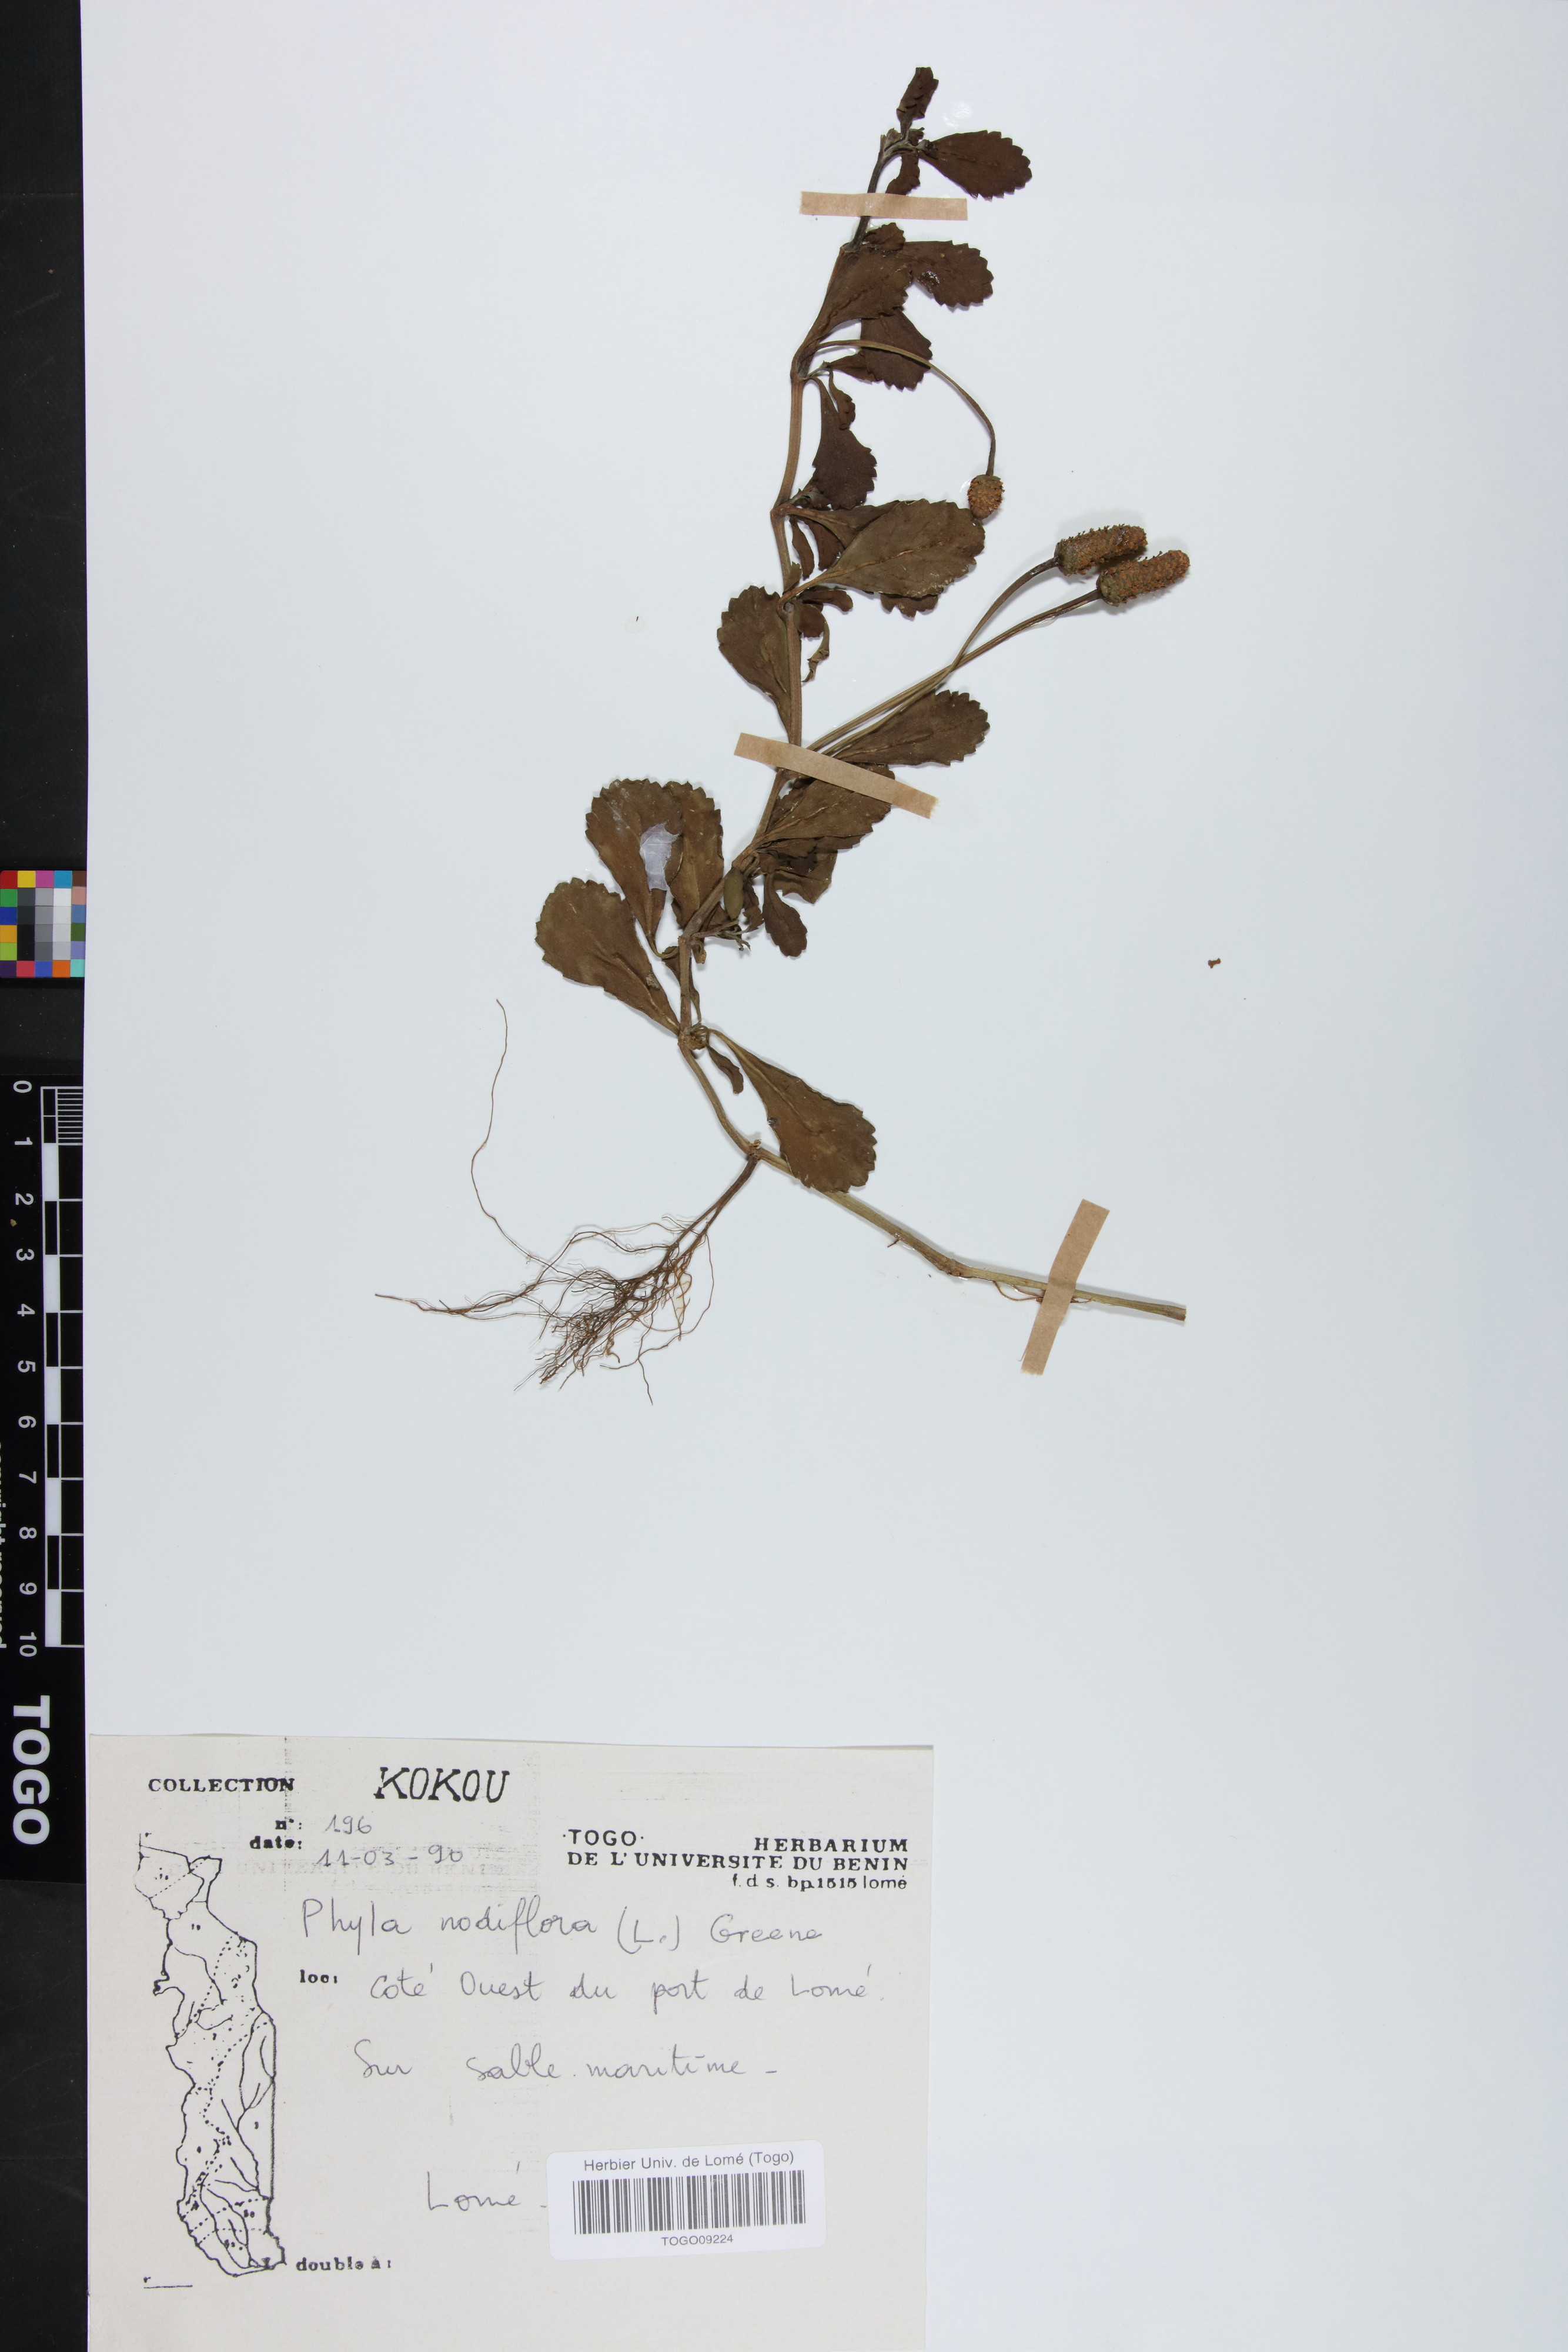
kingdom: Plantae
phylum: Tracheophyta
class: Magnoliopsida
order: Lamiales
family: Verbenaceae
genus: Phyla
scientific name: Phyla nodiflora
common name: Frogfruit
